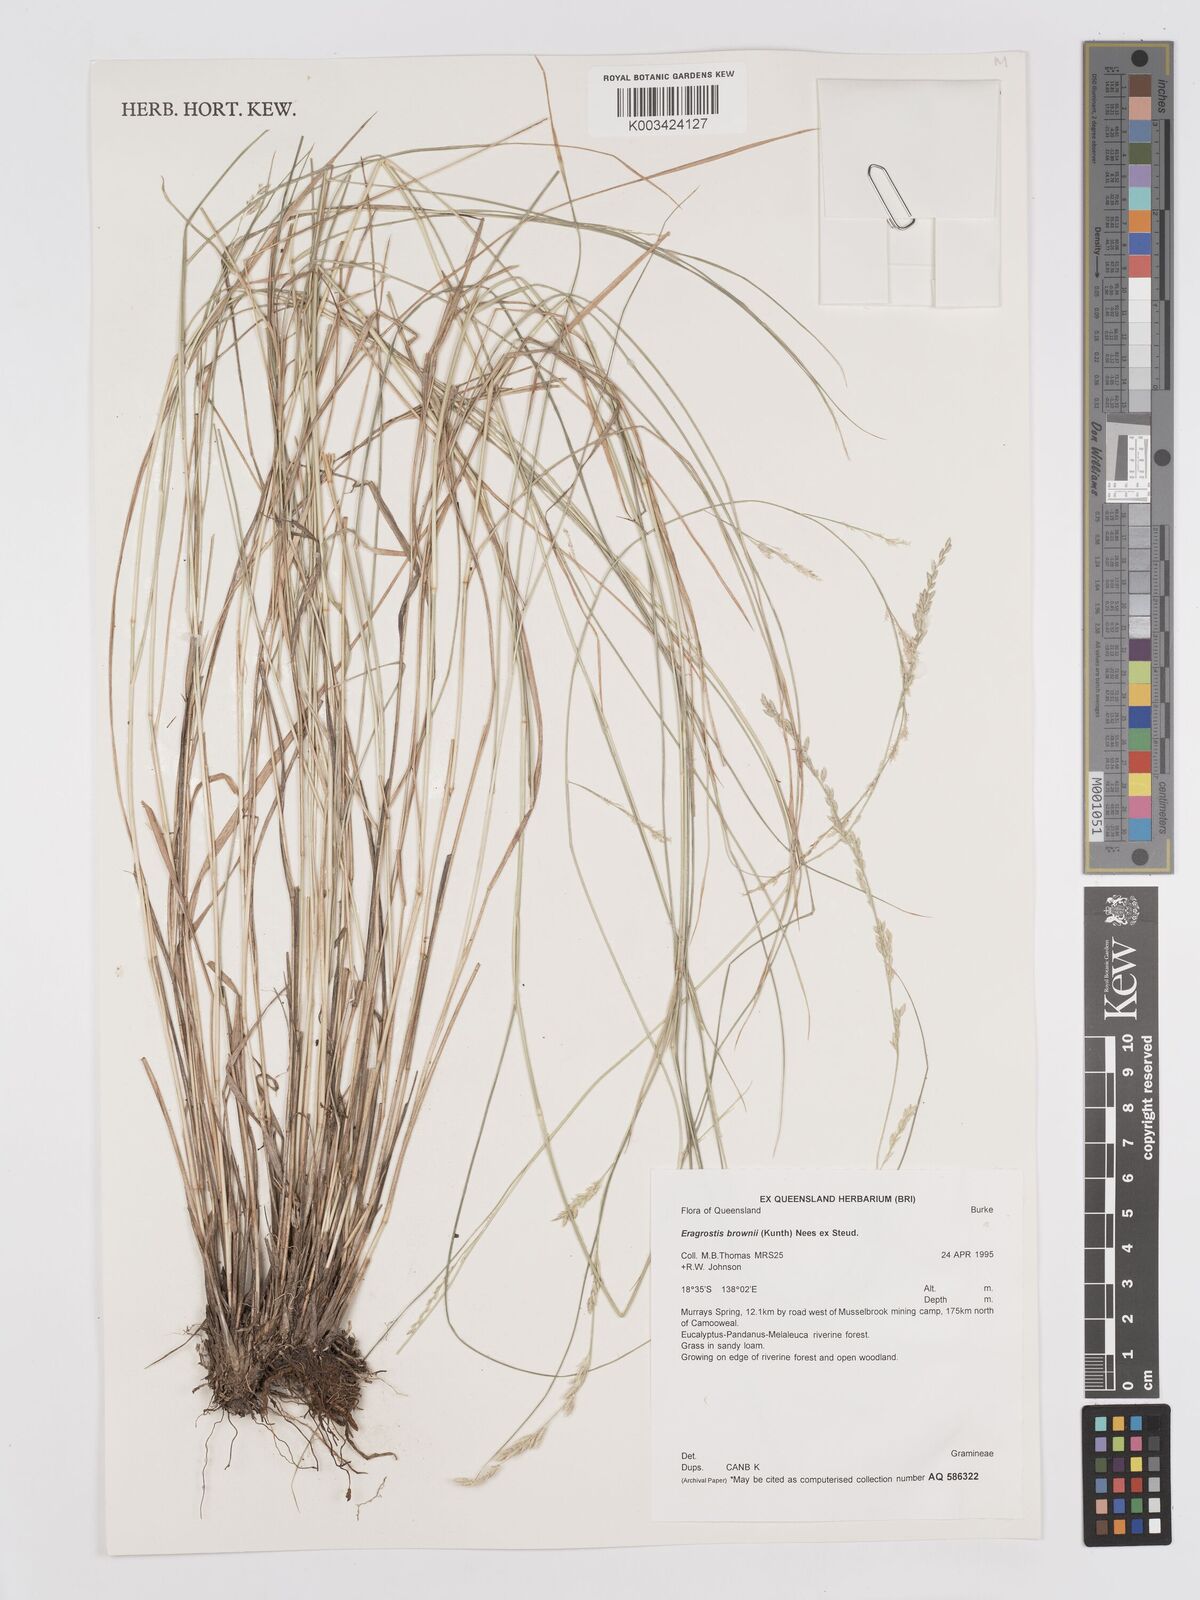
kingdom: Plantae
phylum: Tracheophyta
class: Liliopsida
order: Poales
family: Poaceae
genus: Eragrostis
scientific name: Eragrostis brownii
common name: Lovegrass
